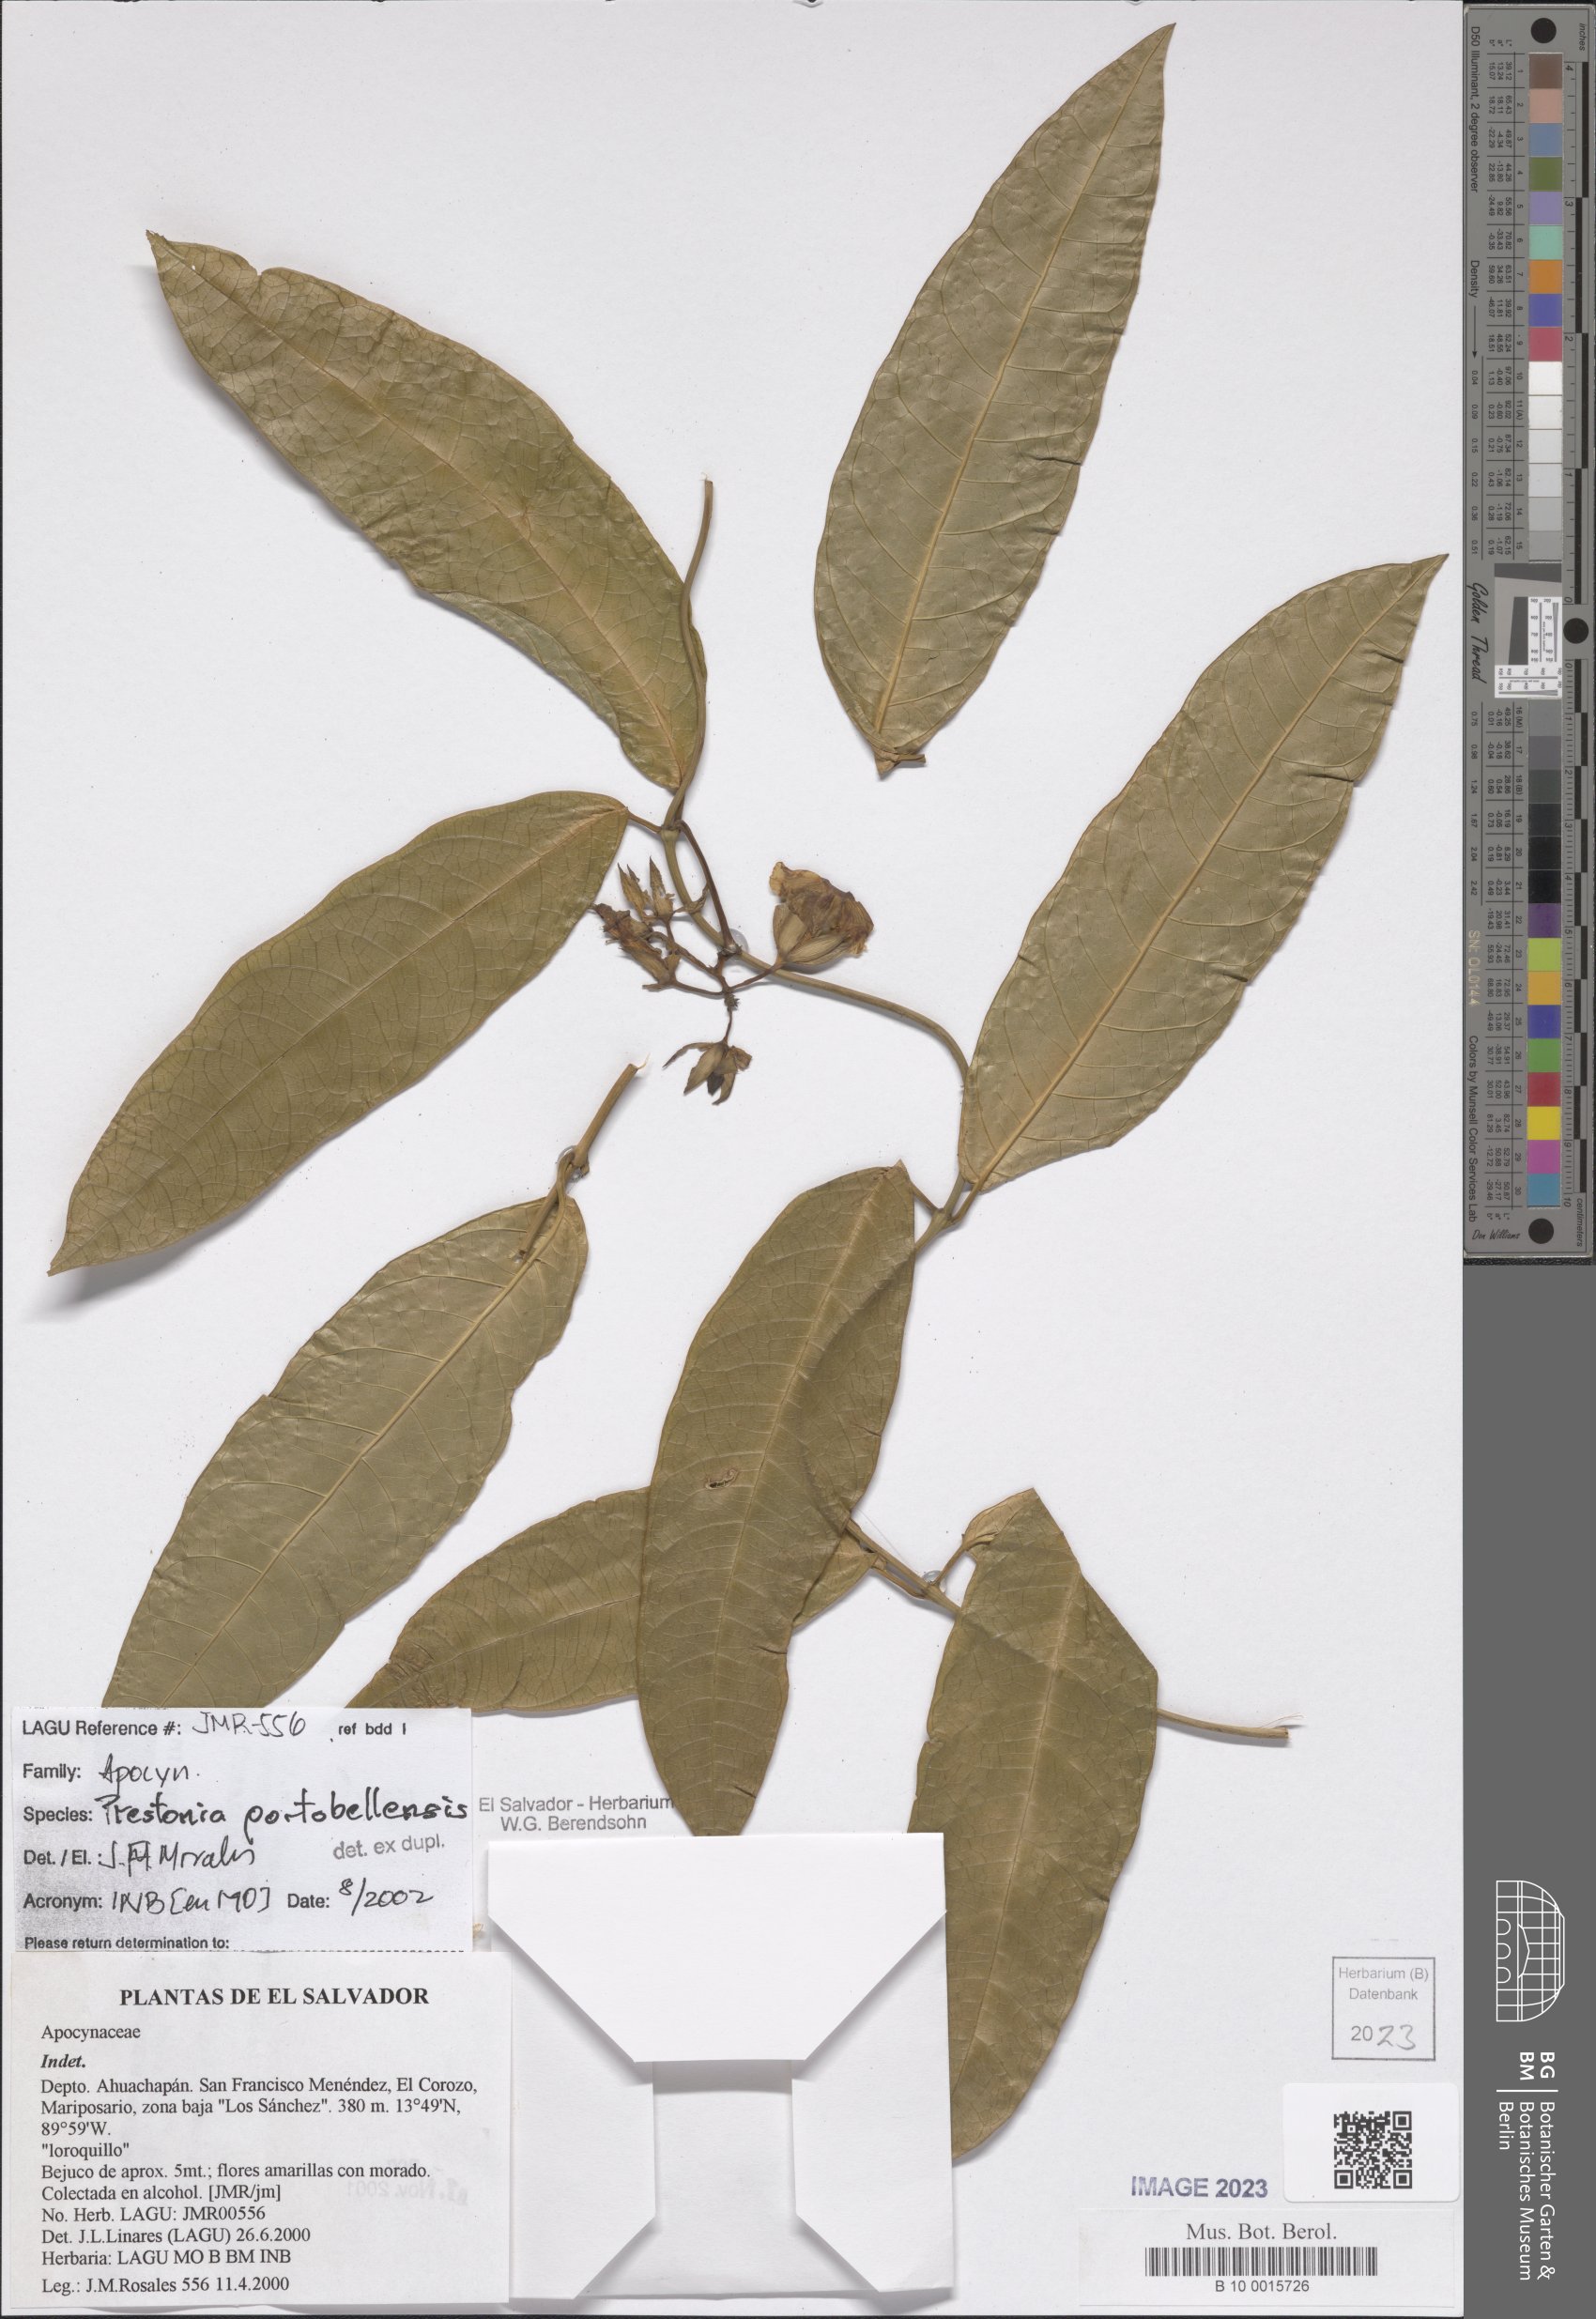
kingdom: Plantae
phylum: Tracheophyta
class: Magnoliopsida
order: Gentianales
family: Apocynaceae
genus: Prestonia
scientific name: Prestonia portobellensis
